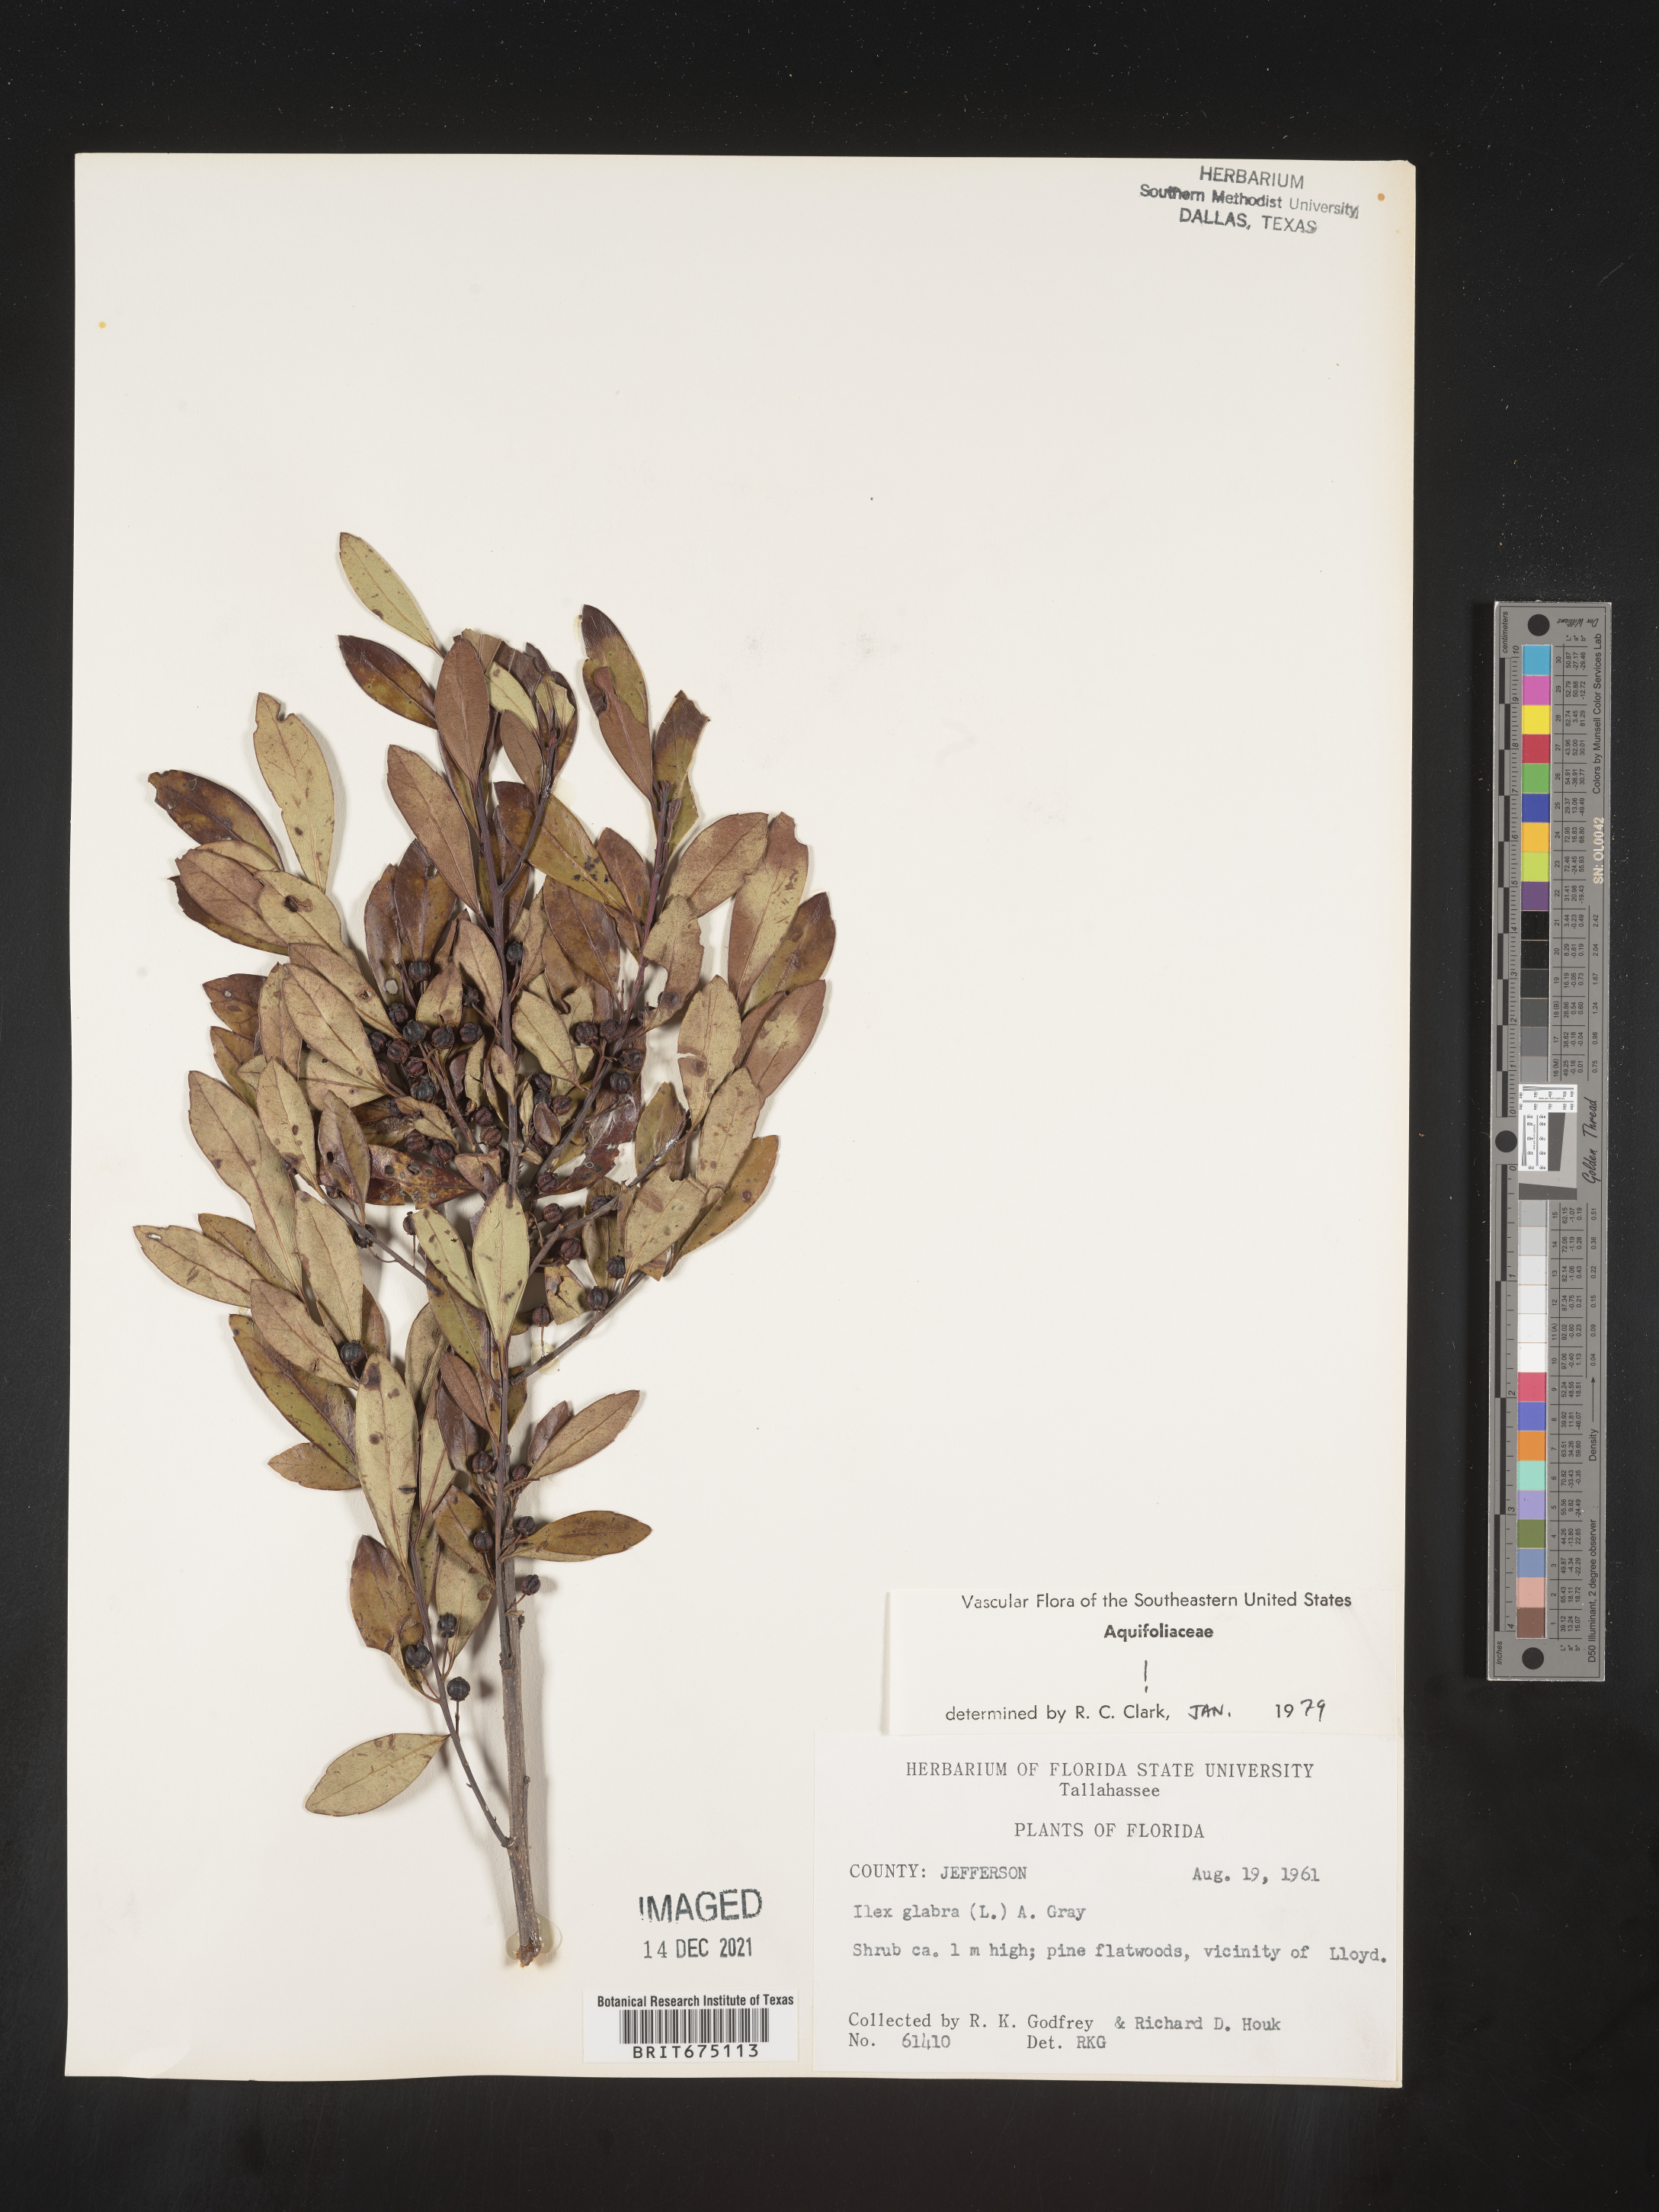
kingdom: Plantae
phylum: Tracheophyta
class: Magnoliopsida
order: Aquifoliales
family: Aquifoliaceae
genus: Ilex
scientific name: Ilex glabra
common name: Bitter gallberry
